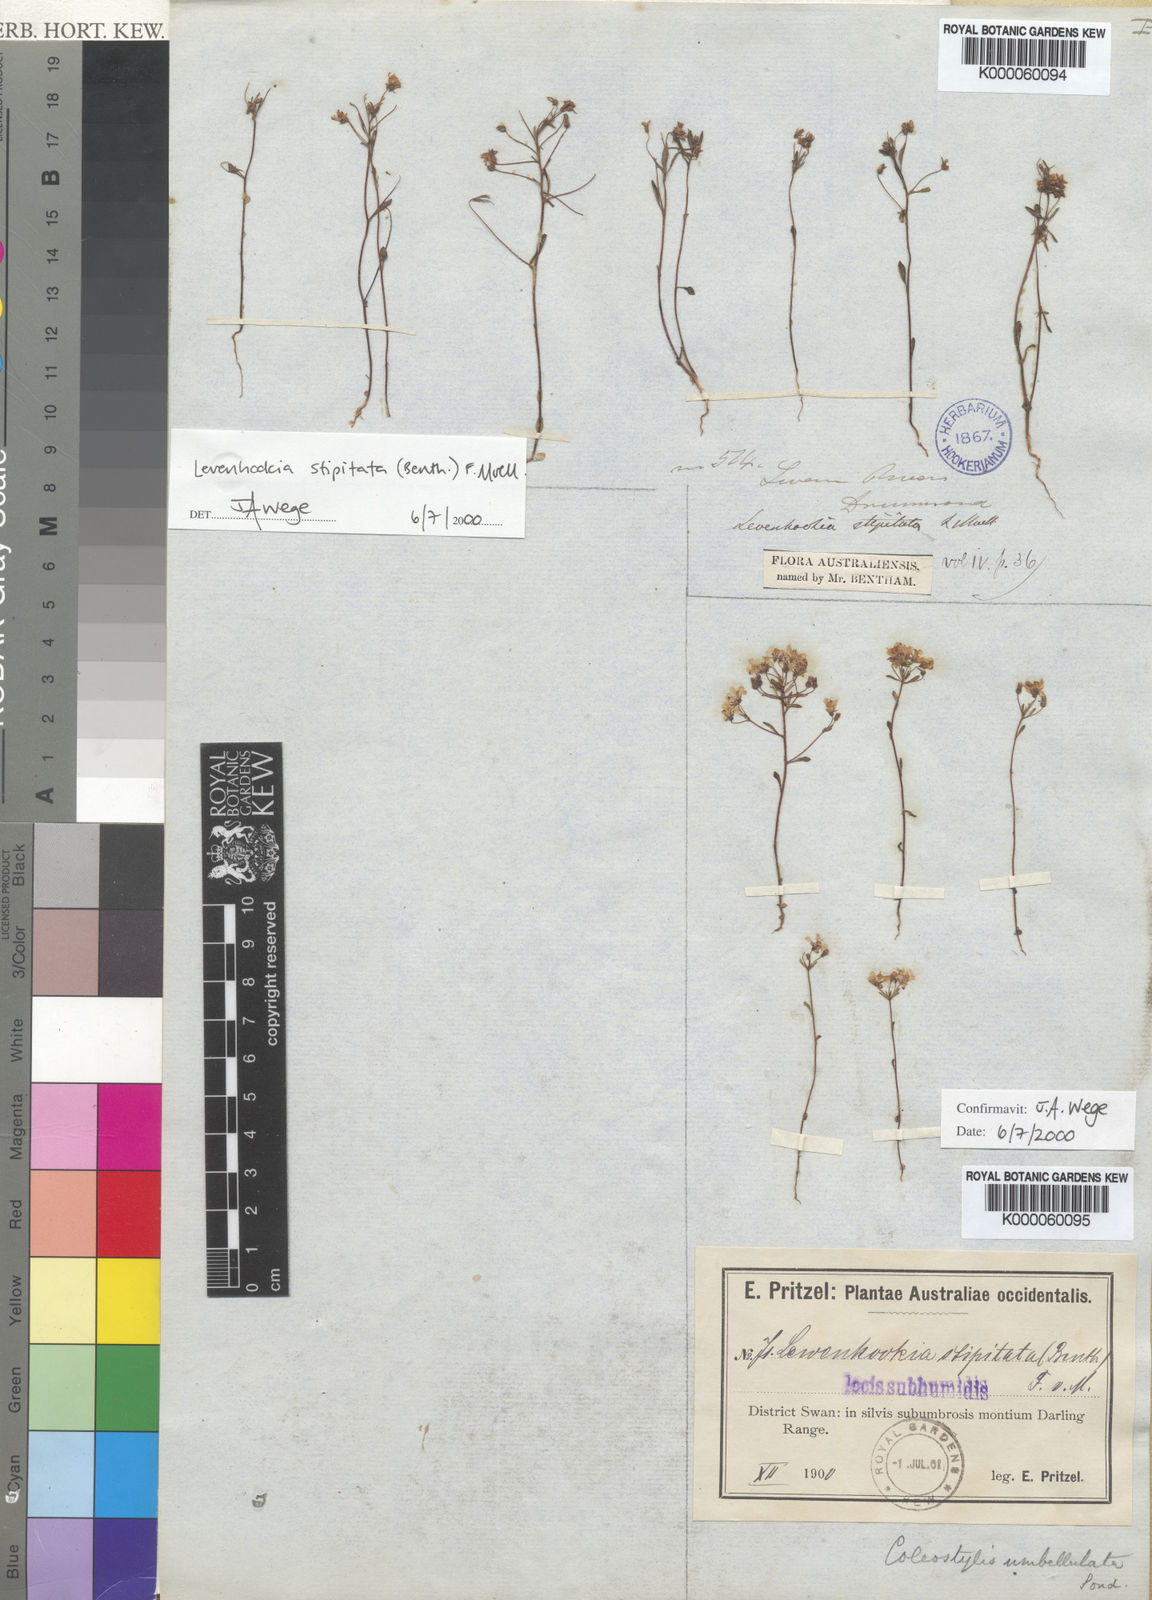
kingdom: Plantae
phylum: Tracheophyta
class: Magnoliopsida
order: Asterales
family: Stylidiaceae
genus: Levenhookia
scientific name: Levenhookia stipitata
